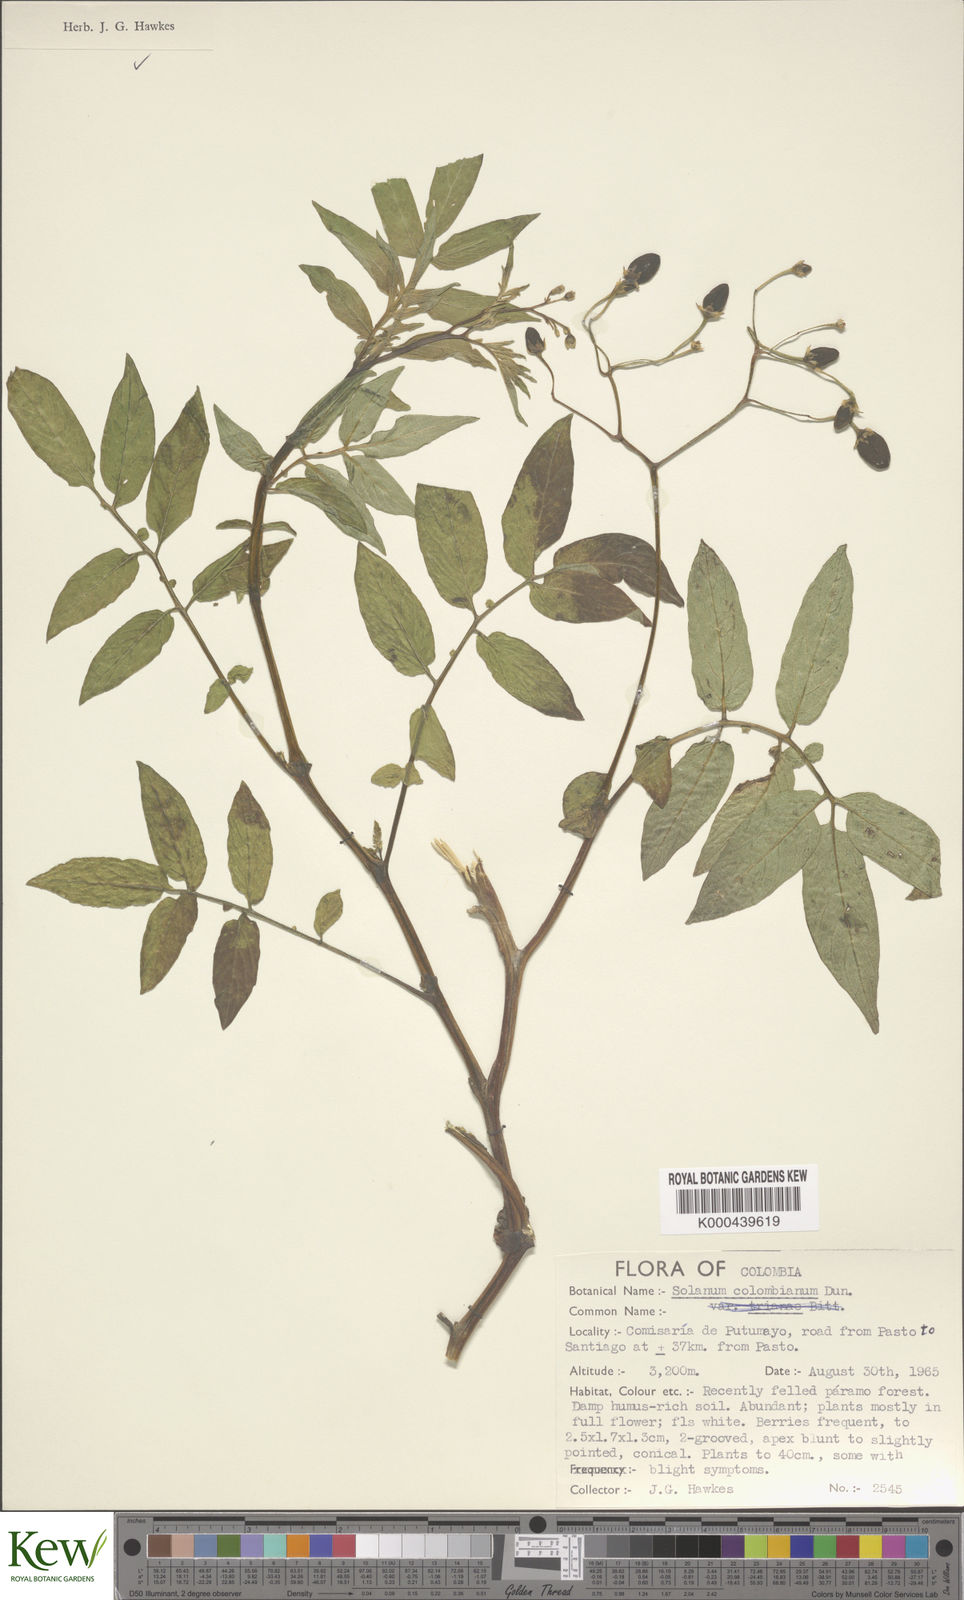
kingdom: Plantae
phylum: Tracheophyta
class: Magnoliopsida
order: Solanales
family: Solanaceae
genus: Solanum
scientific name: Solanum colombianum
